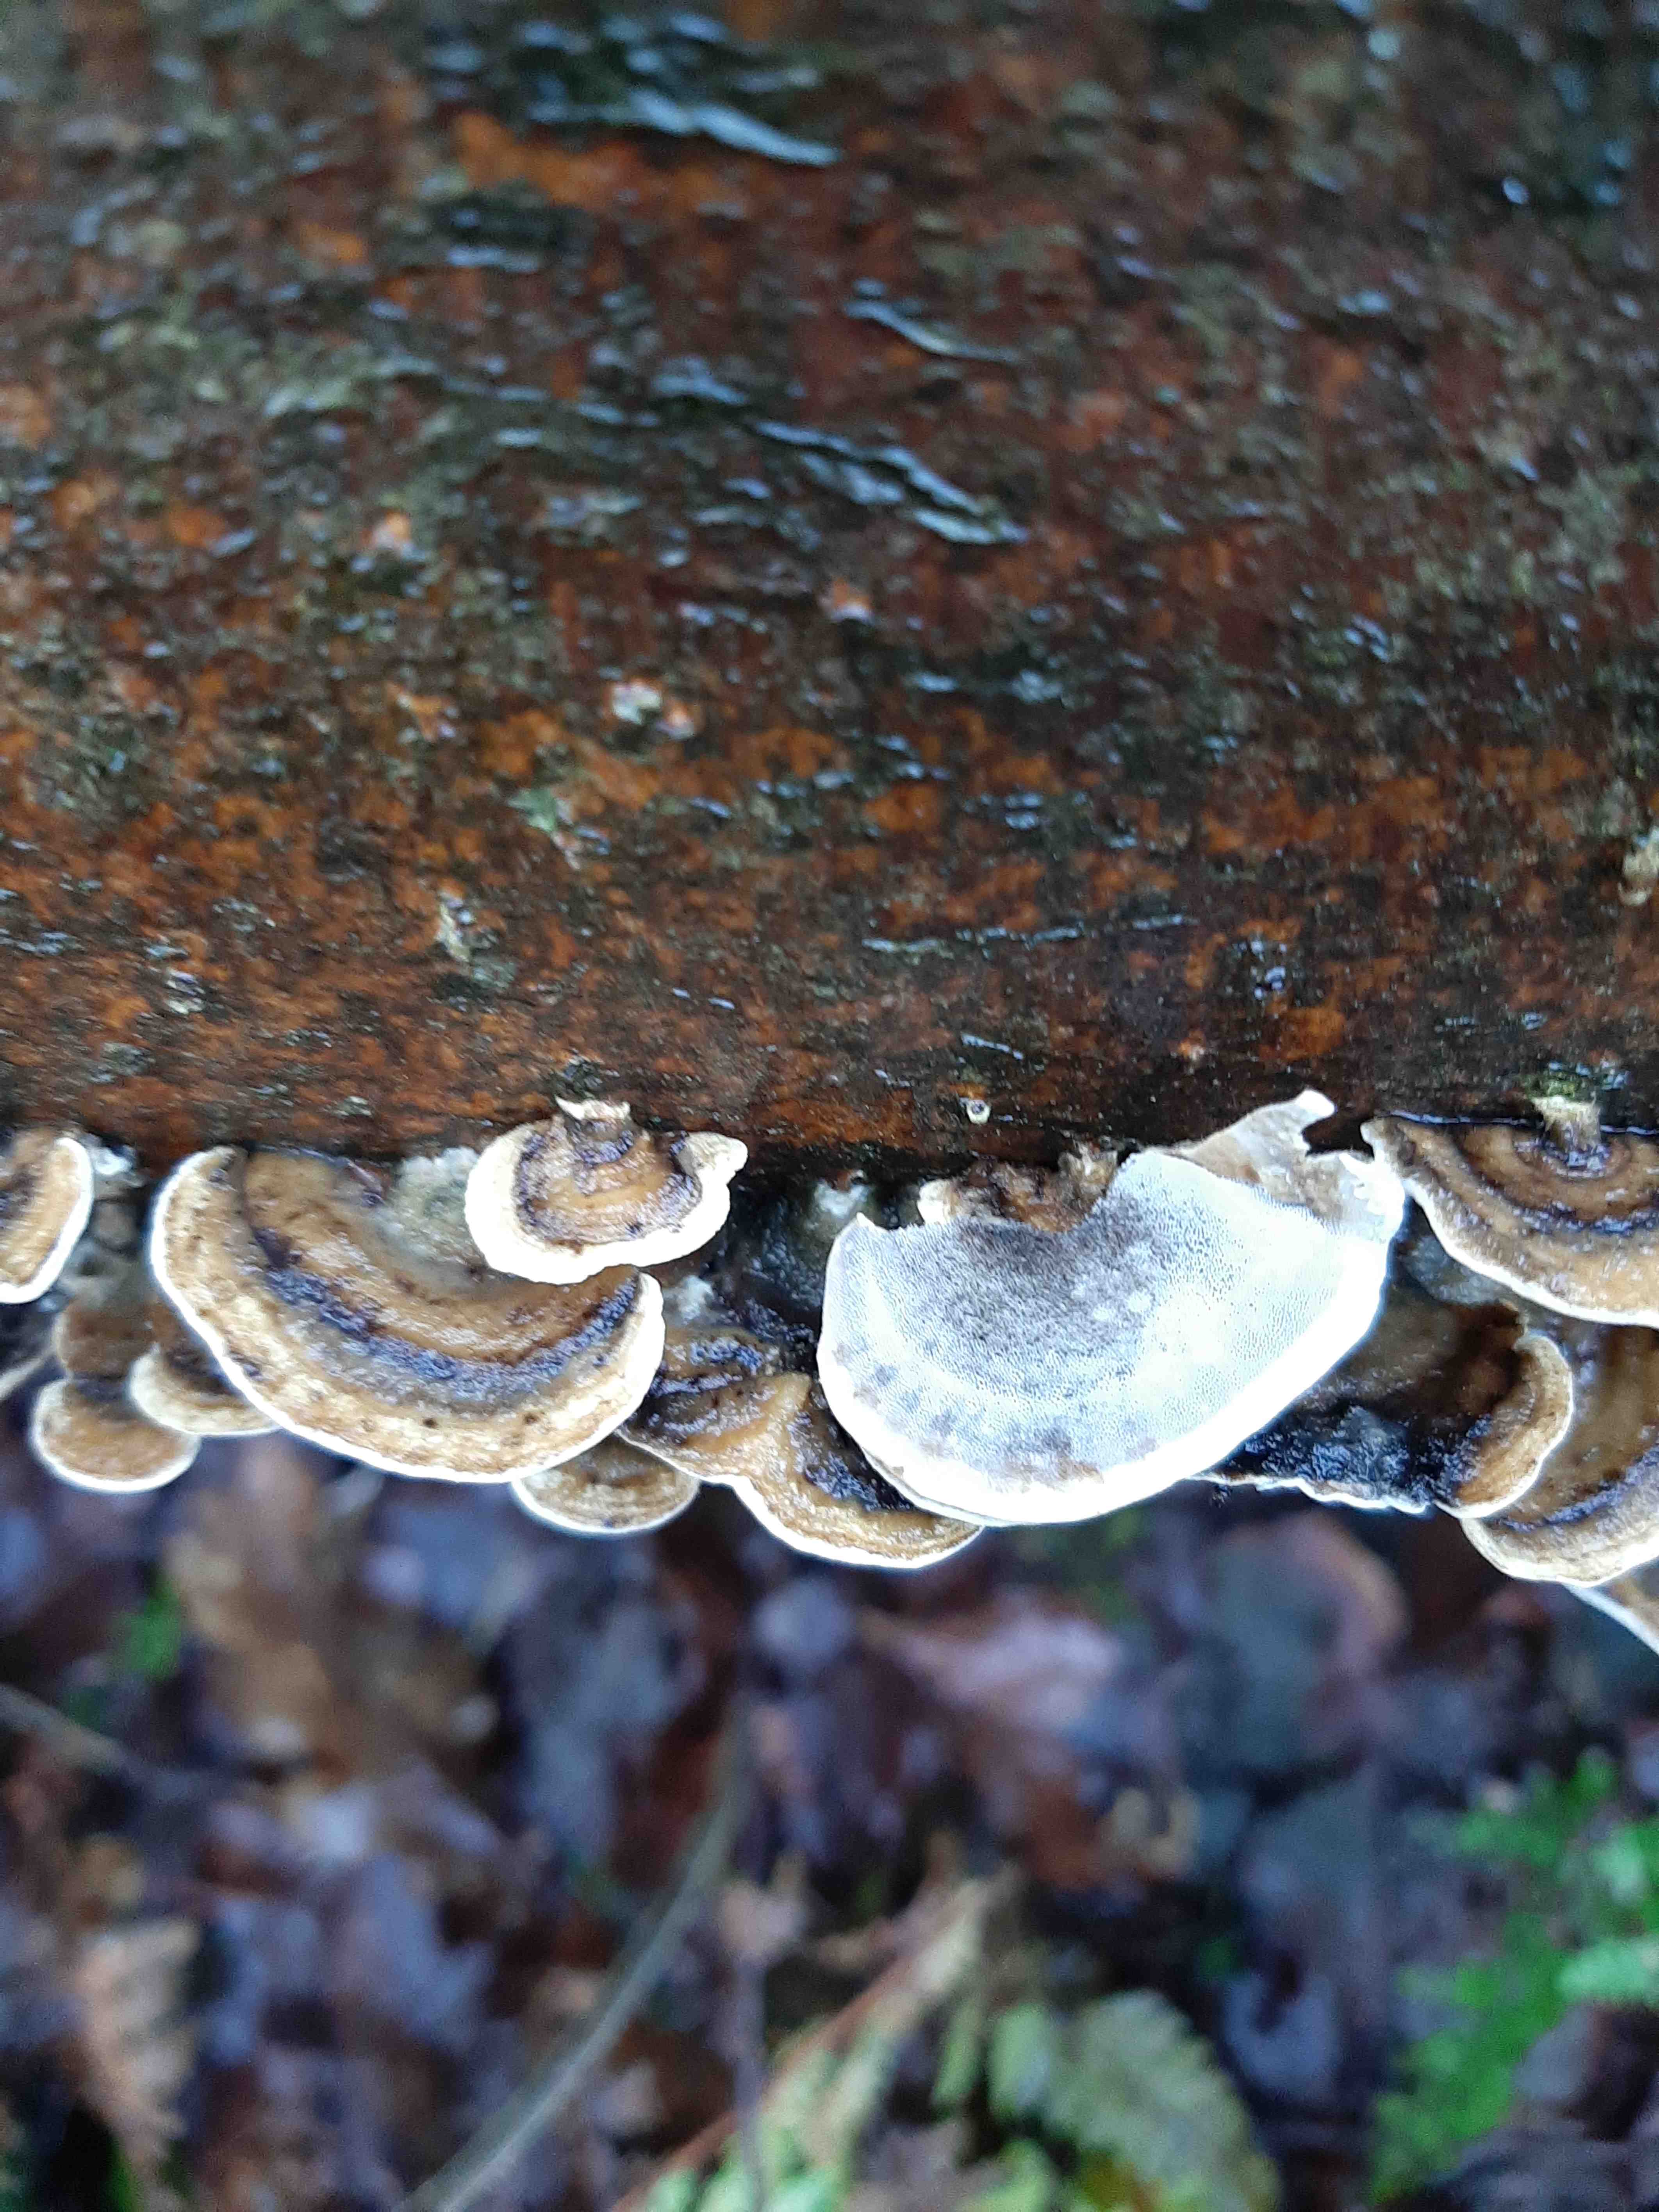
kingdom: Fungi
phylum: Basidiomycota
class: Agaricomycetes
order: Polyporales
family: Phanerochaetaceae
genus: Bjerkandera
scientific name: Bjerkandera adusta
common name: sveden sodporesvamp
